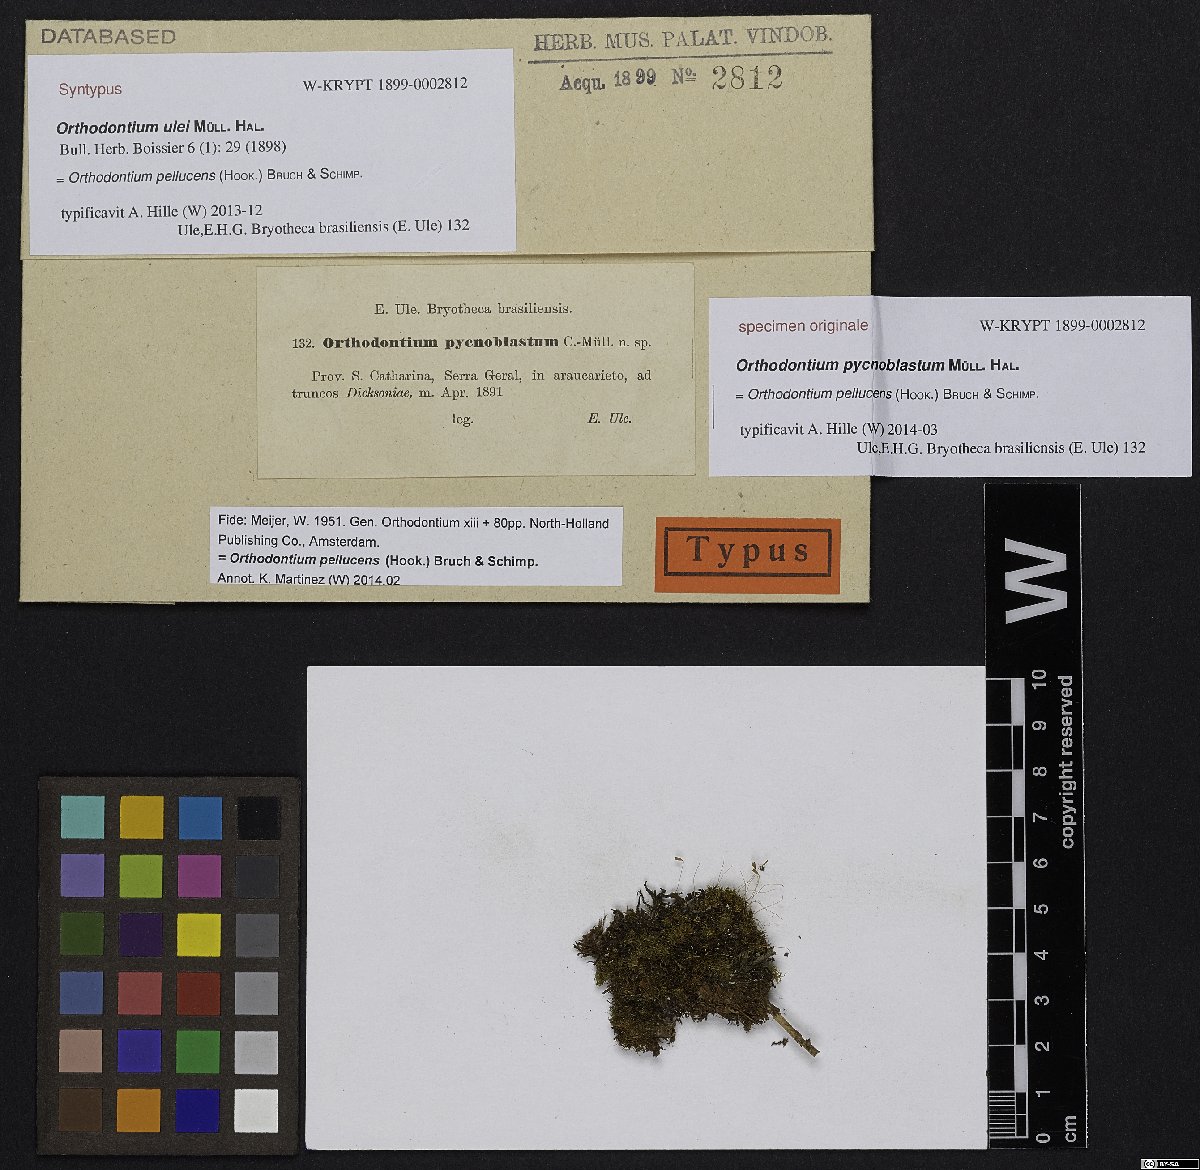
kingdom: Plantae
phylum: Bryophyta
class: Bryopsida
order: Orthodontiales
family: Orthodontiaceae
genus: Orthodontium
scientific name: Orthodontium pellucens
